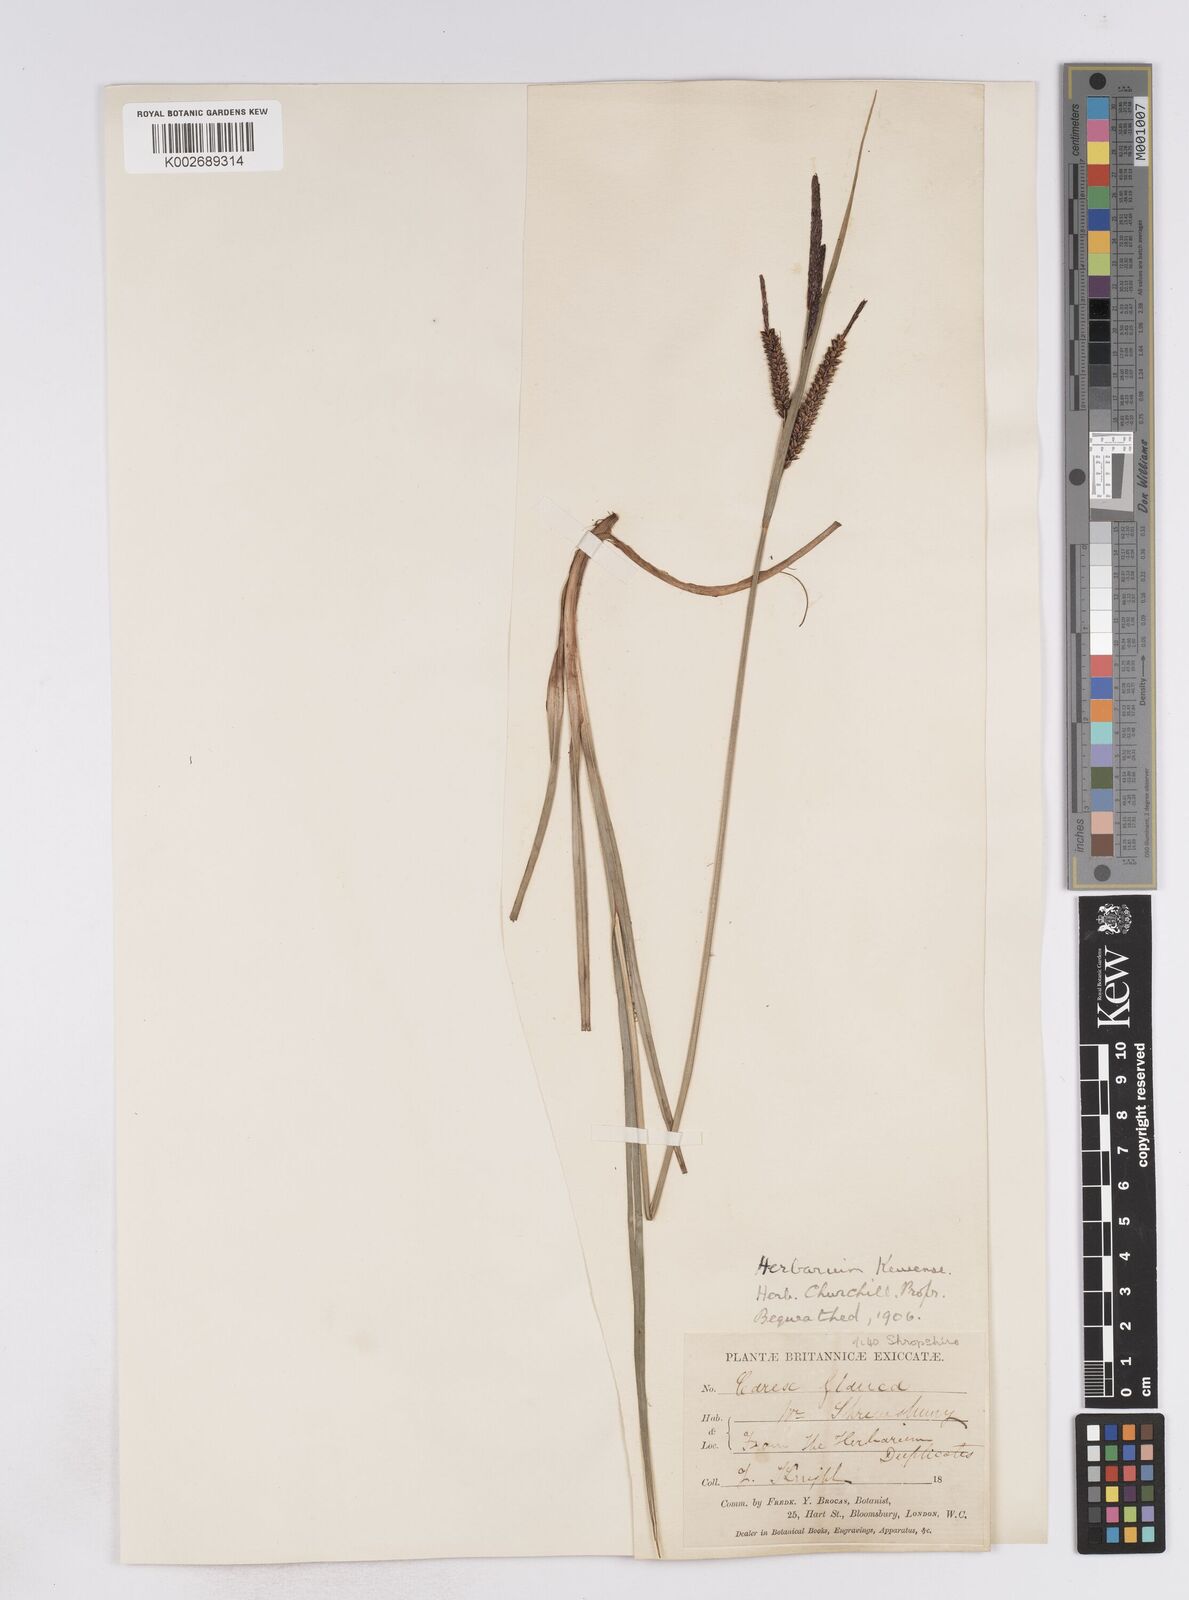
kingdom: Plantae
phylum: Tracheophyta
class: Liliopsida
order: Poales
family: Cyperaceae
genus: Carex
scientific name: Carex flacca
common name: Glaucous sedge
